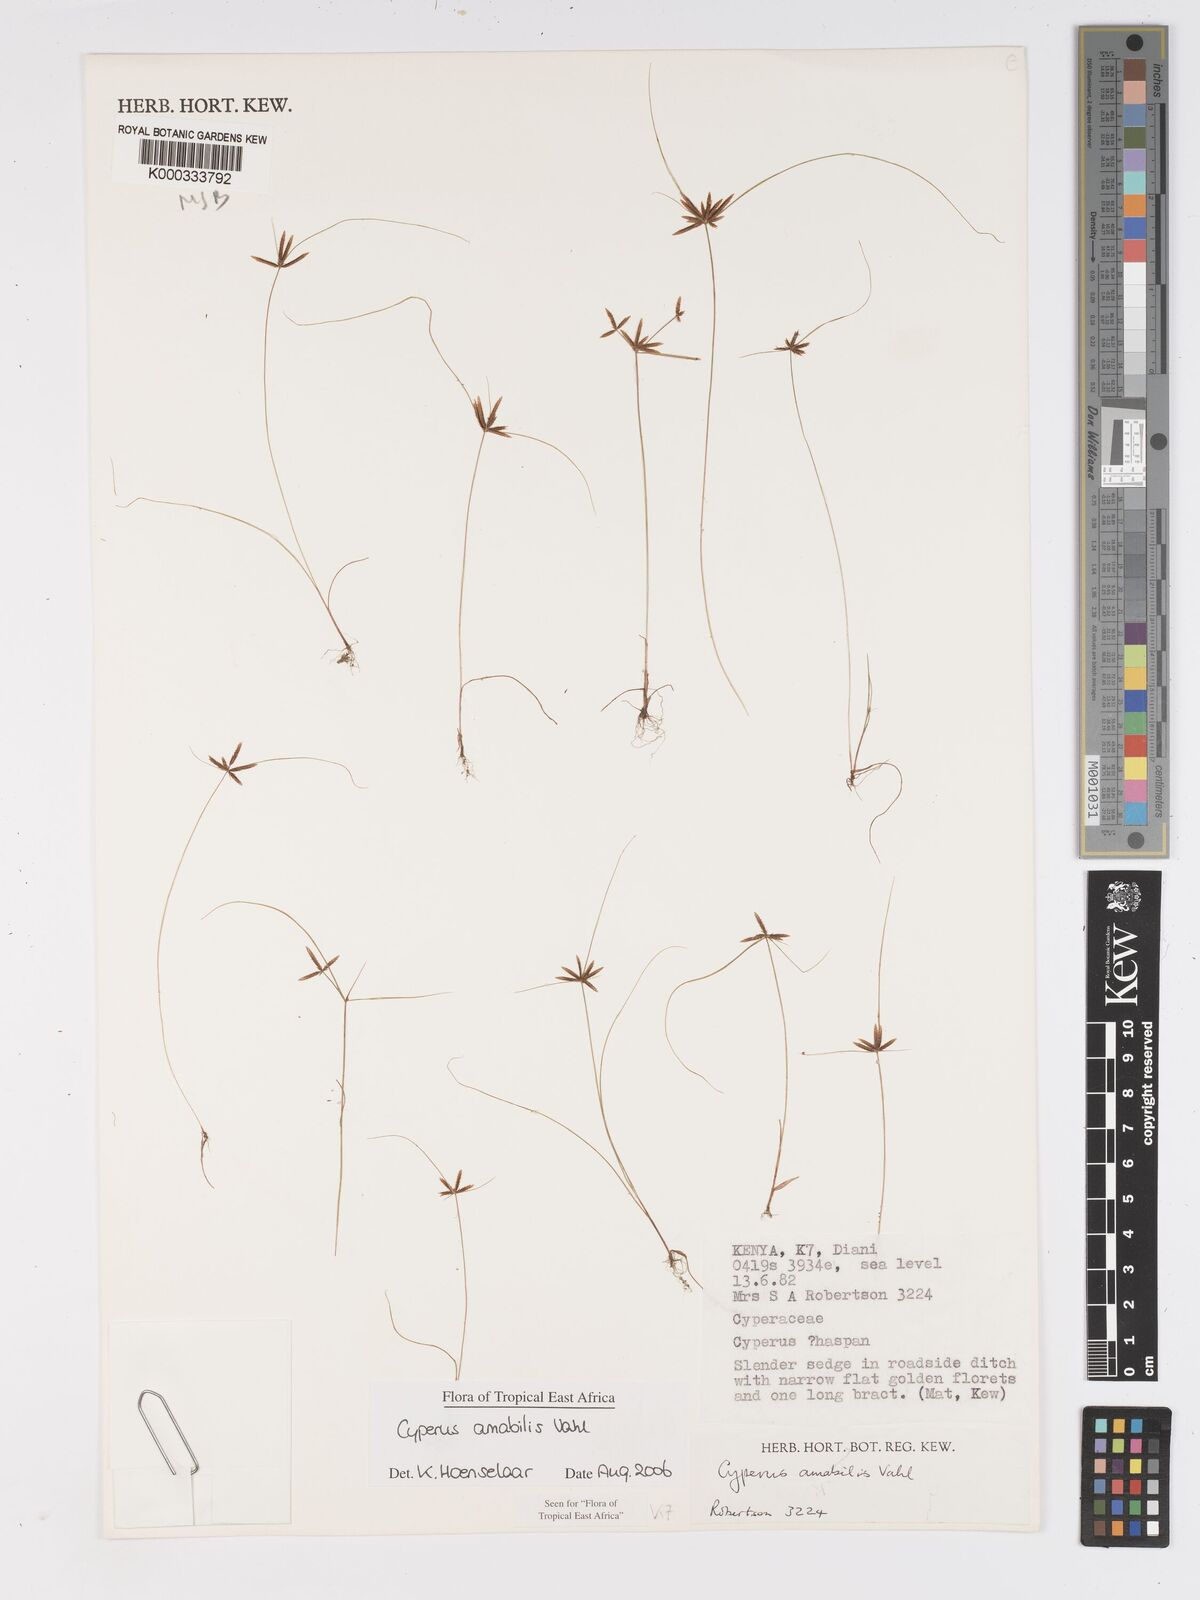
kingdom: Plantae
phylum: Tracheophyta
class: Liliopsida
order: Poales
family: Cyperaceae
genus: Cyperus
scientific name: Cyperus amabilis
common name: Foothill flat sedge
